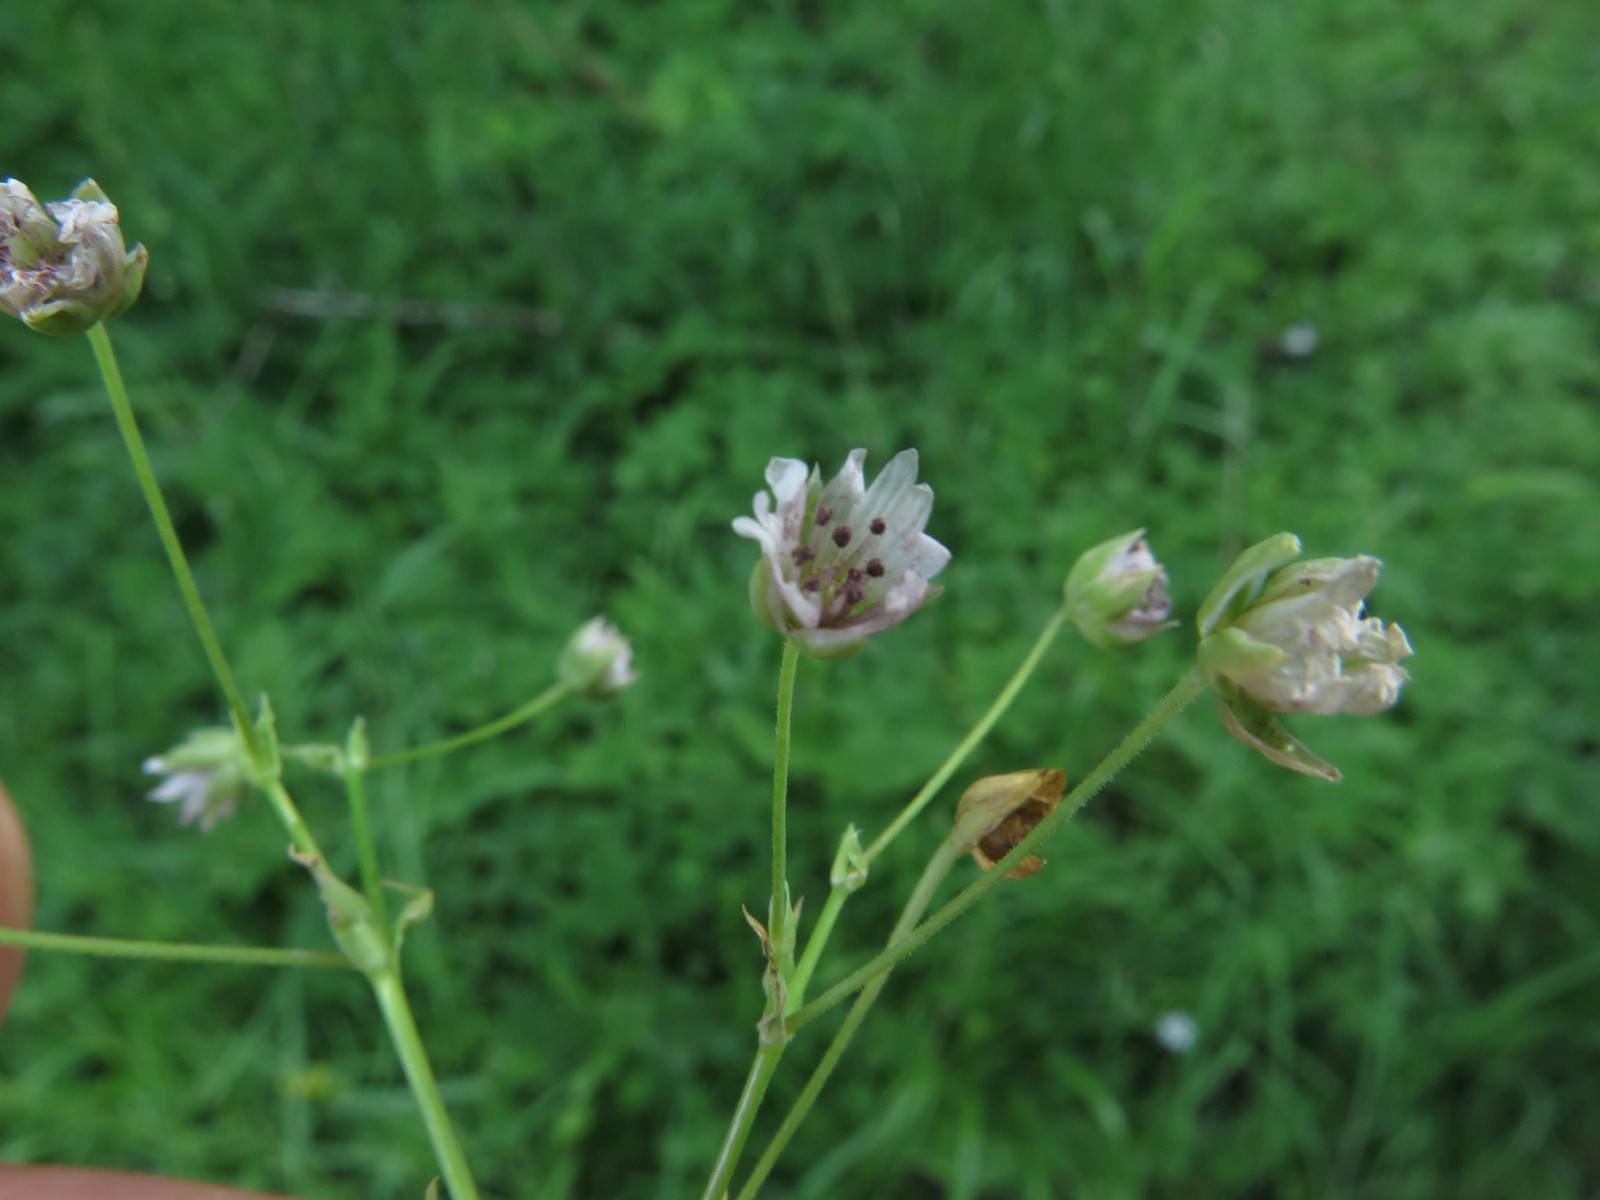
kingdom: Fungi
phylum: Basidiomycota
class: Microbotryomycetes
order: Microbotryales
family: Microbotryaceae
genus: Microbotryum
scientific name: Microbotryum stellariae
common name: fladstjerne-støvbladrust
